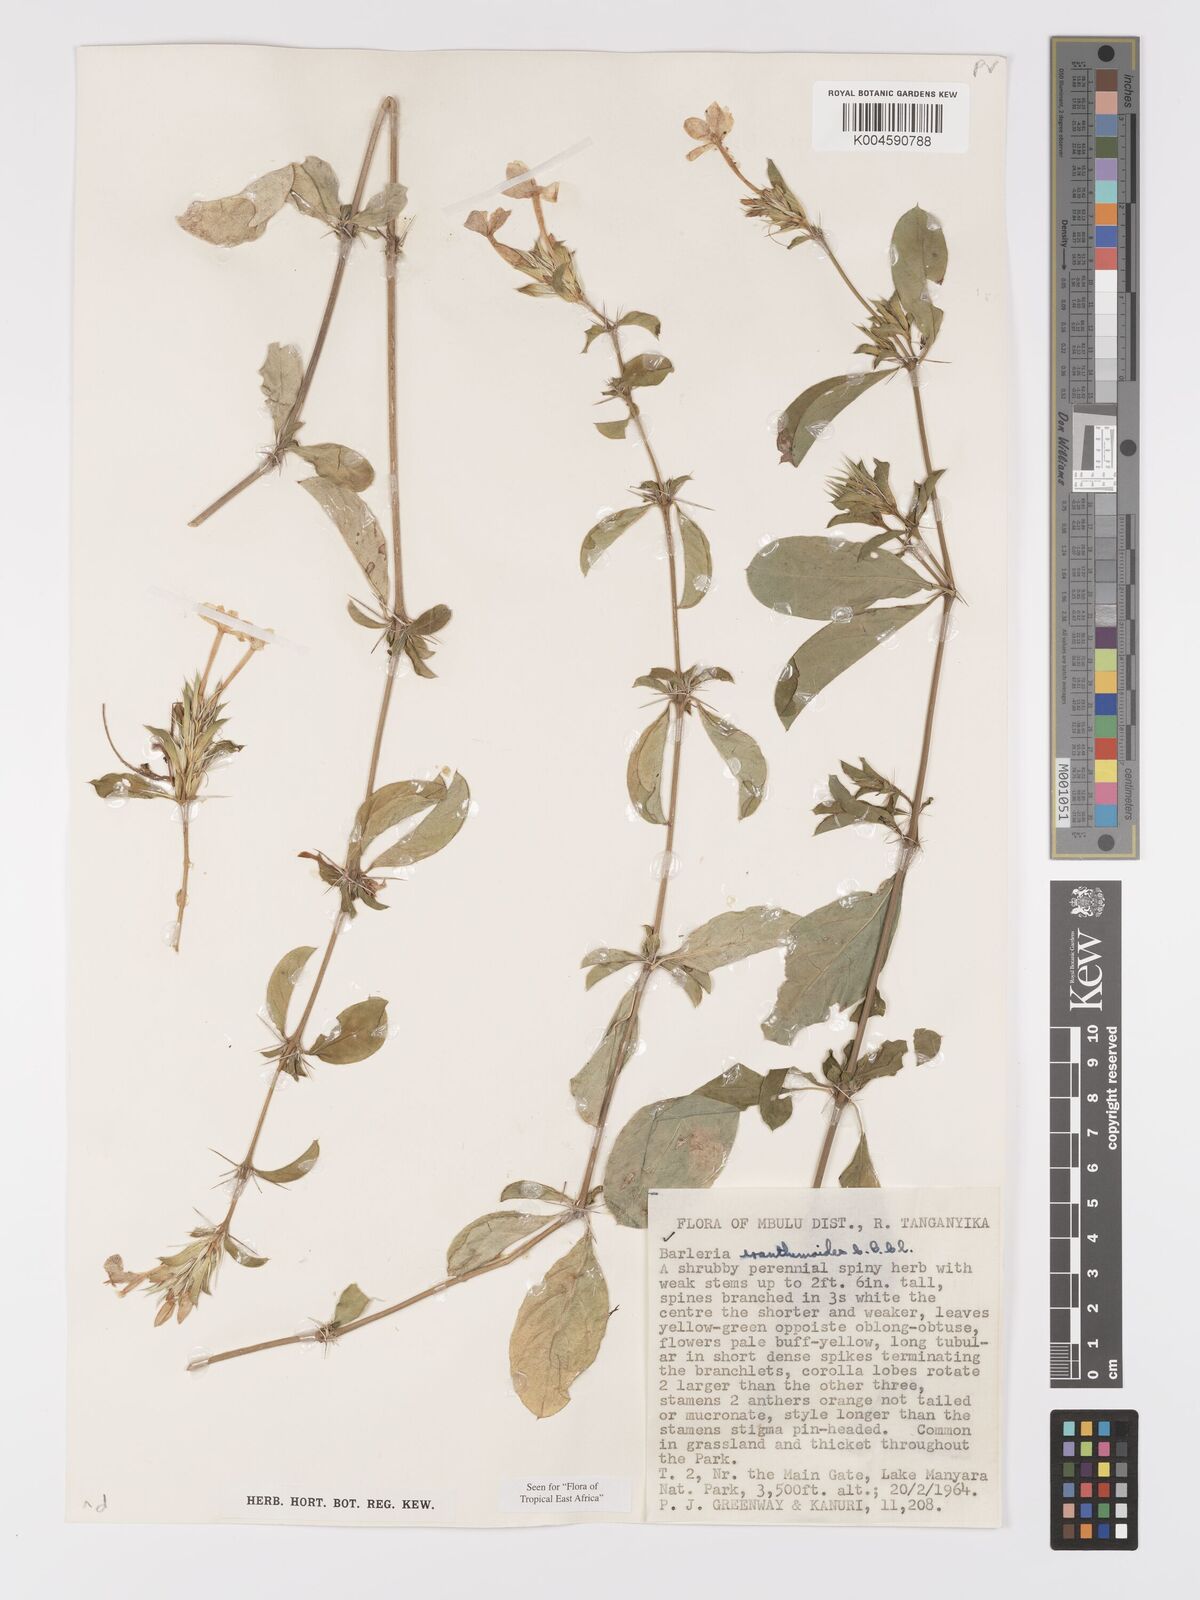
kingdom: Plantae
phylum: Tracheophyta
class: Magnoliopsida
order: Lamiales
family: Acanthaceae
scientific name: Acanthaceae
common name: Acanthaceae
